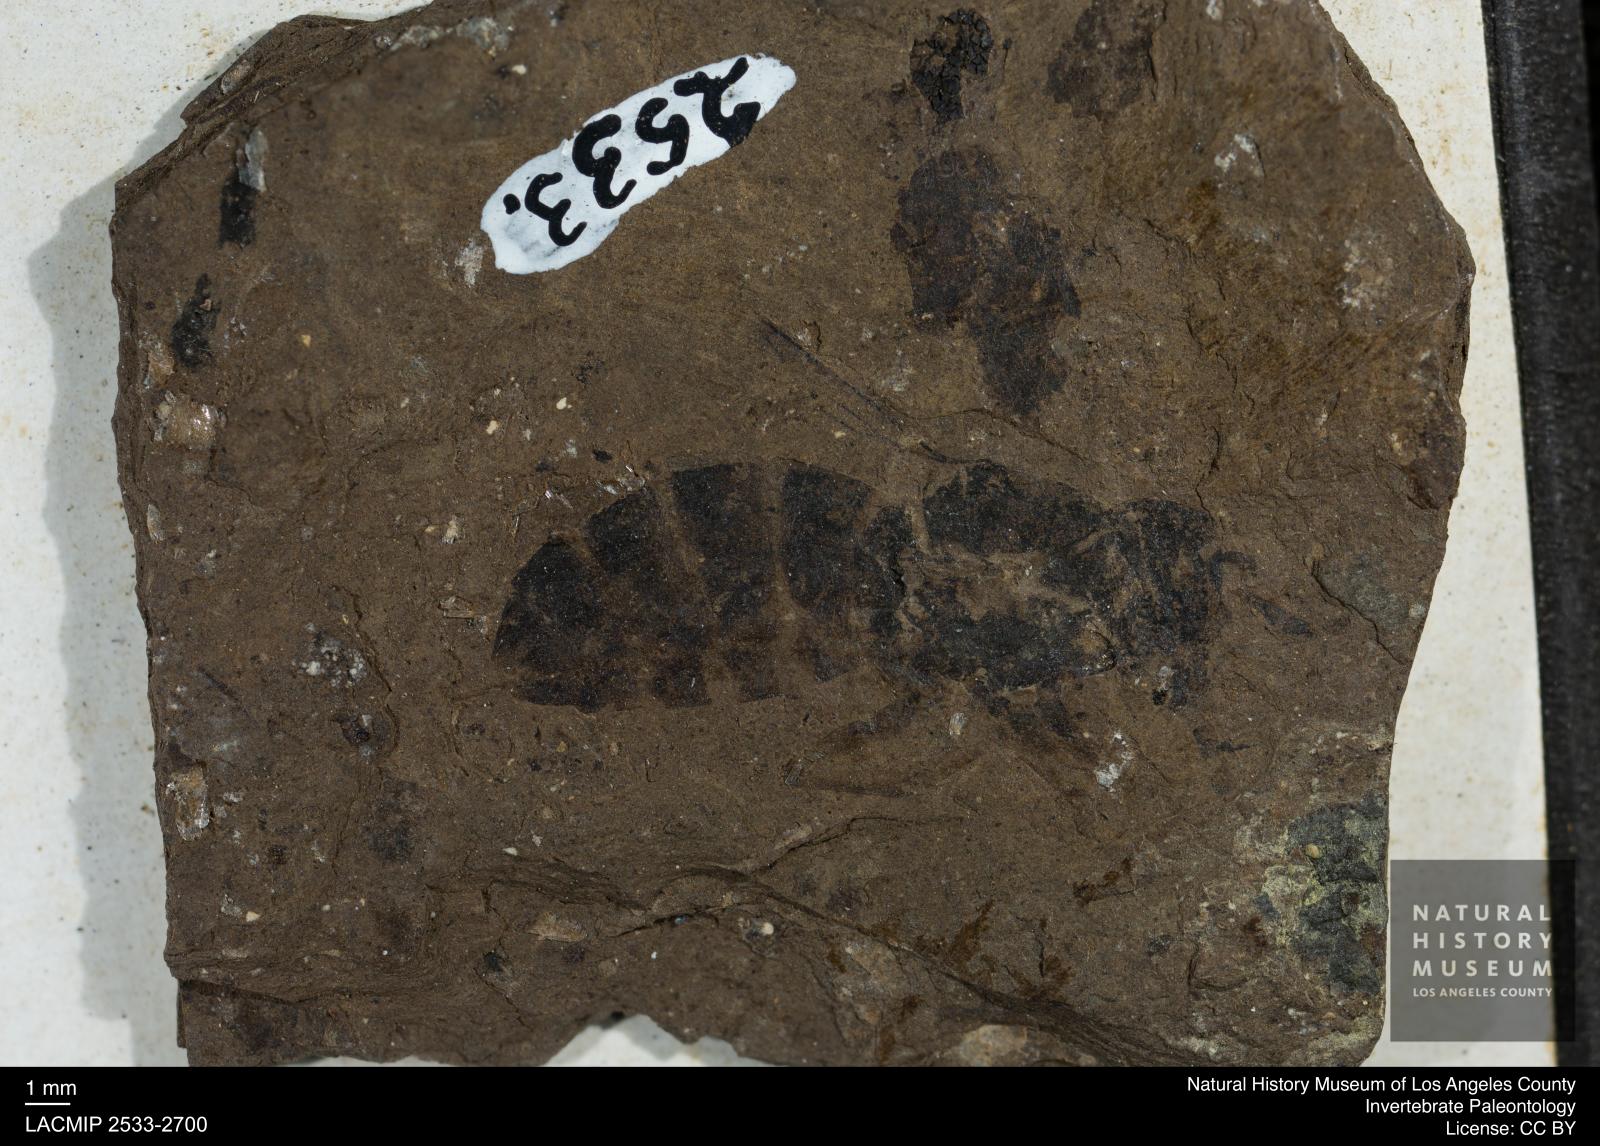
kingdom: Animalia
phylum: Arthropoda
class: Insecta
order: Hymenoptera
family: Apidae
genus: Apis
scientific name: Apis henshawi
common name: Henshaw's honey bee
